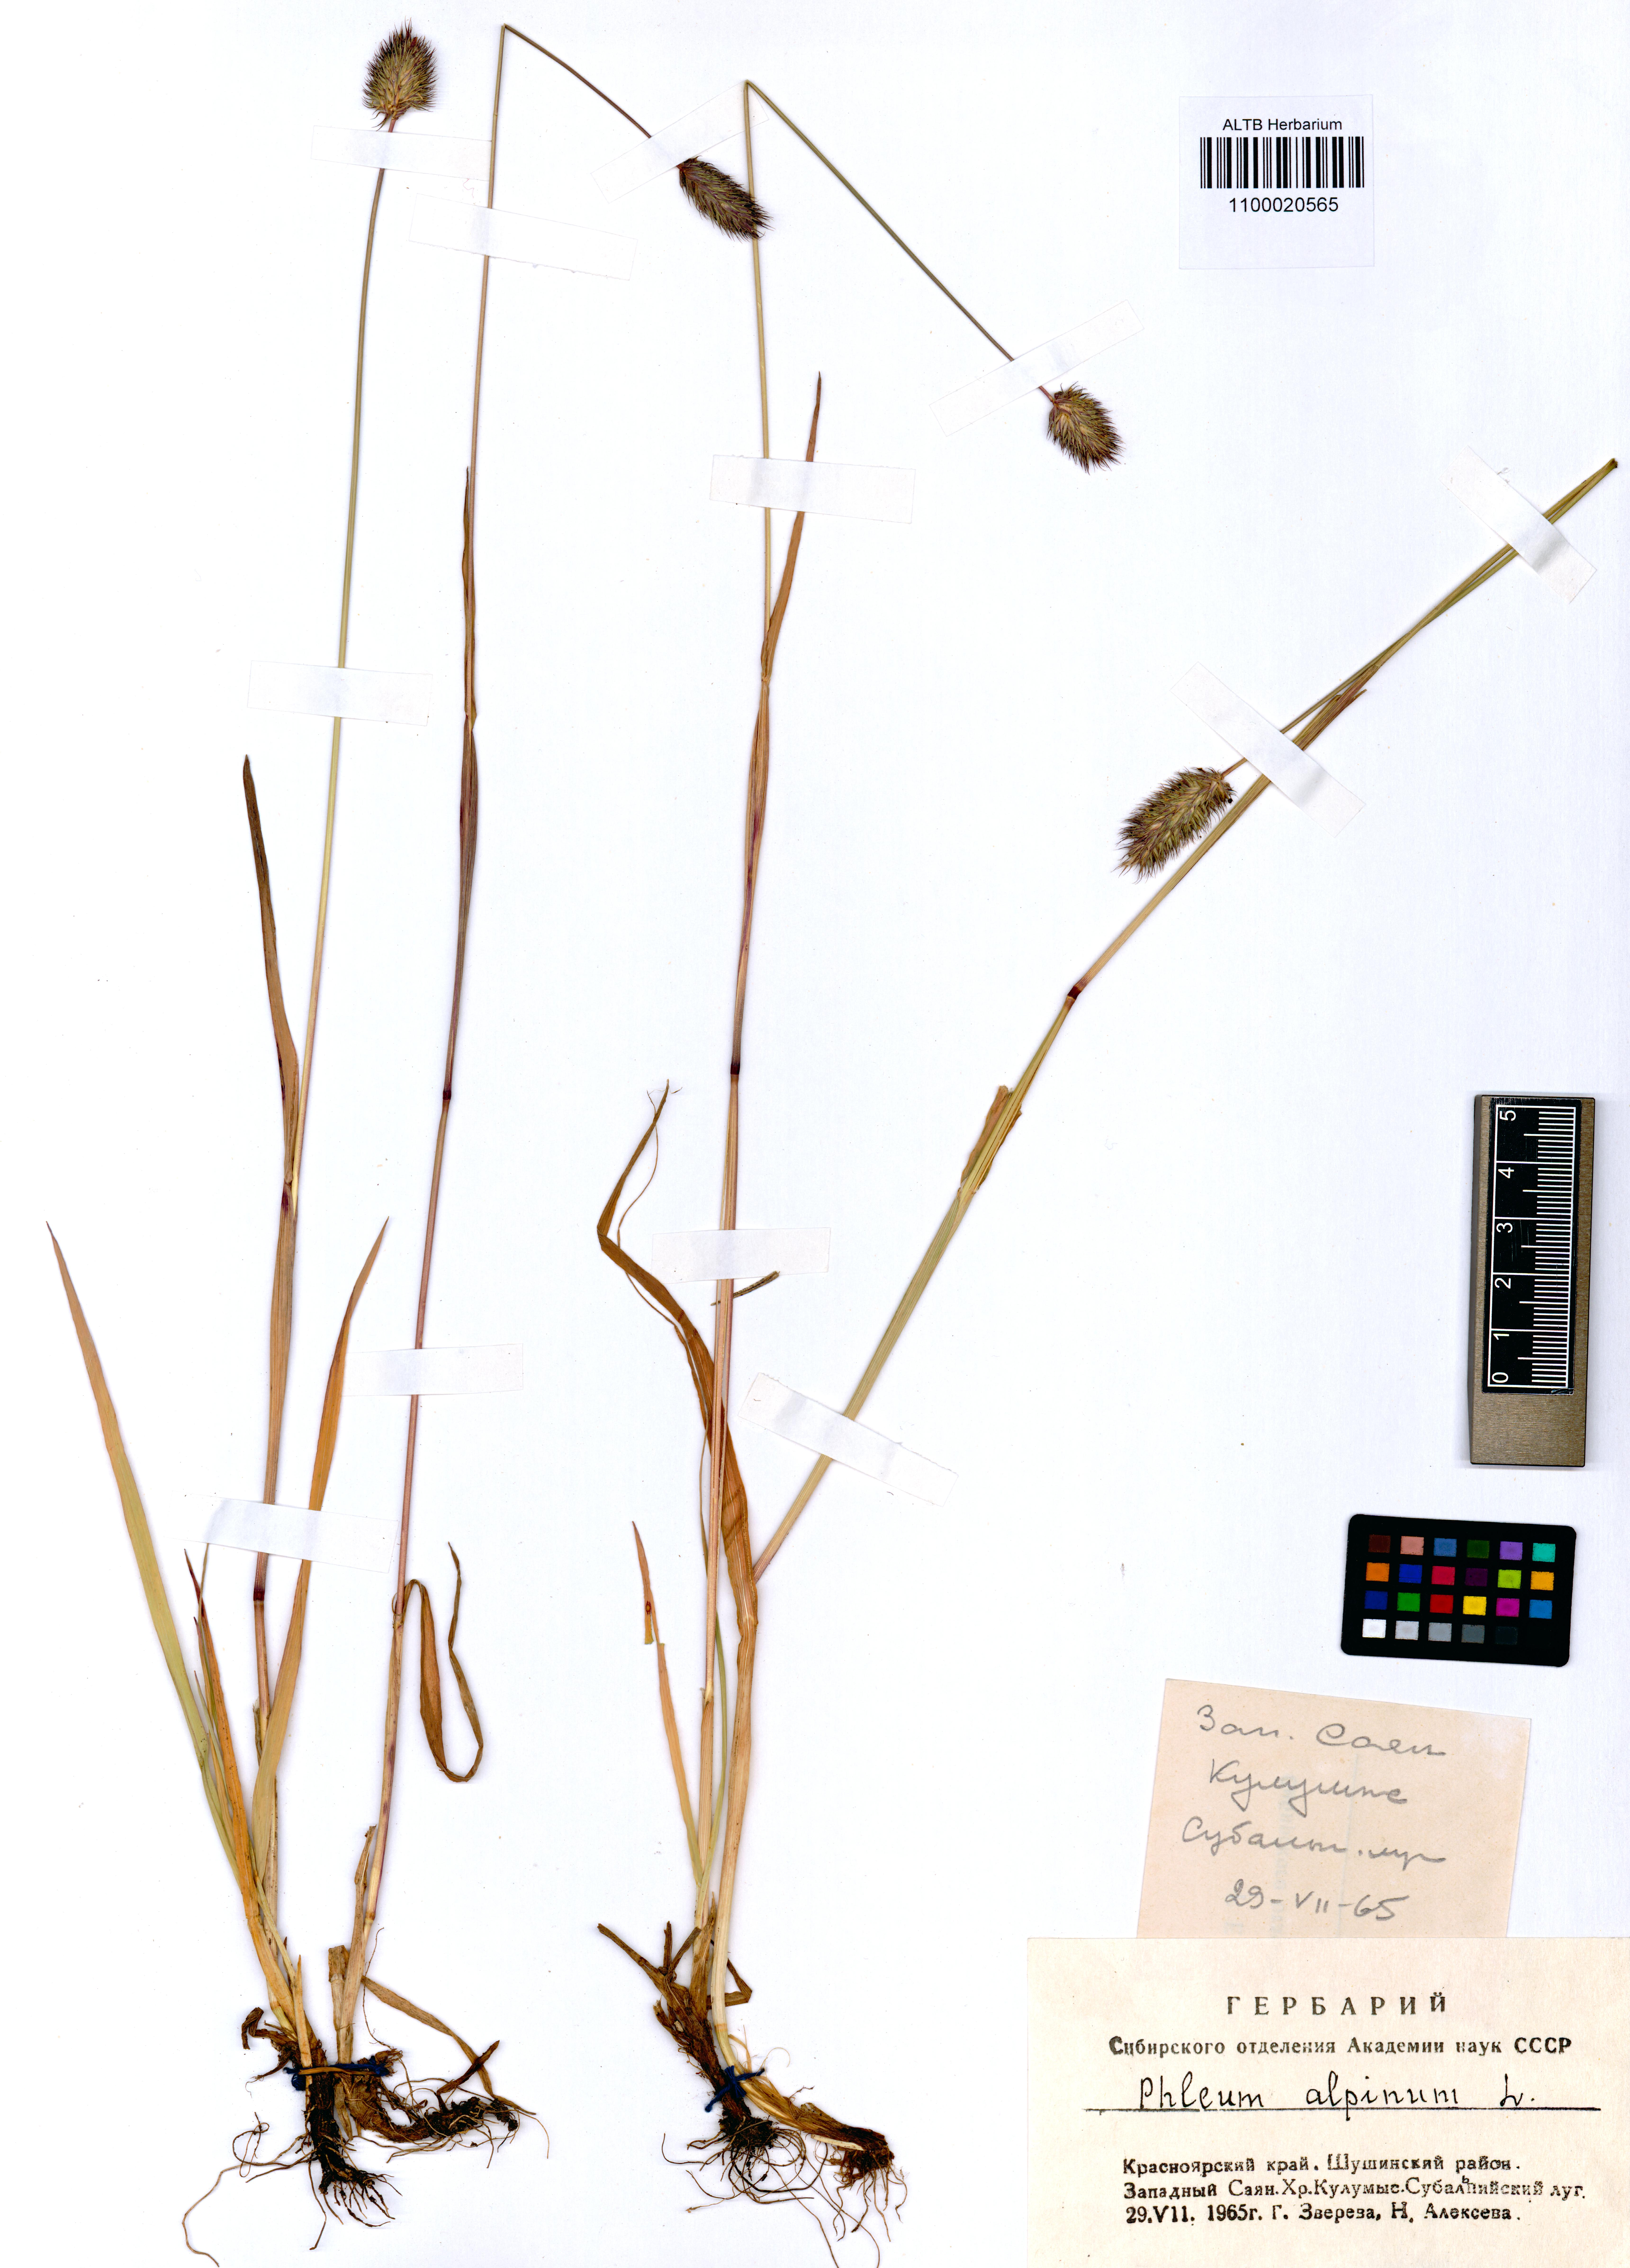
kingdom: Plantae
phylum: Tracheophyta
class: Liliopsida
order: Poales
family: Poaceae
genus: Phleum
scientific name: Phleum alpinum
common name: Alpine cat's-tail
